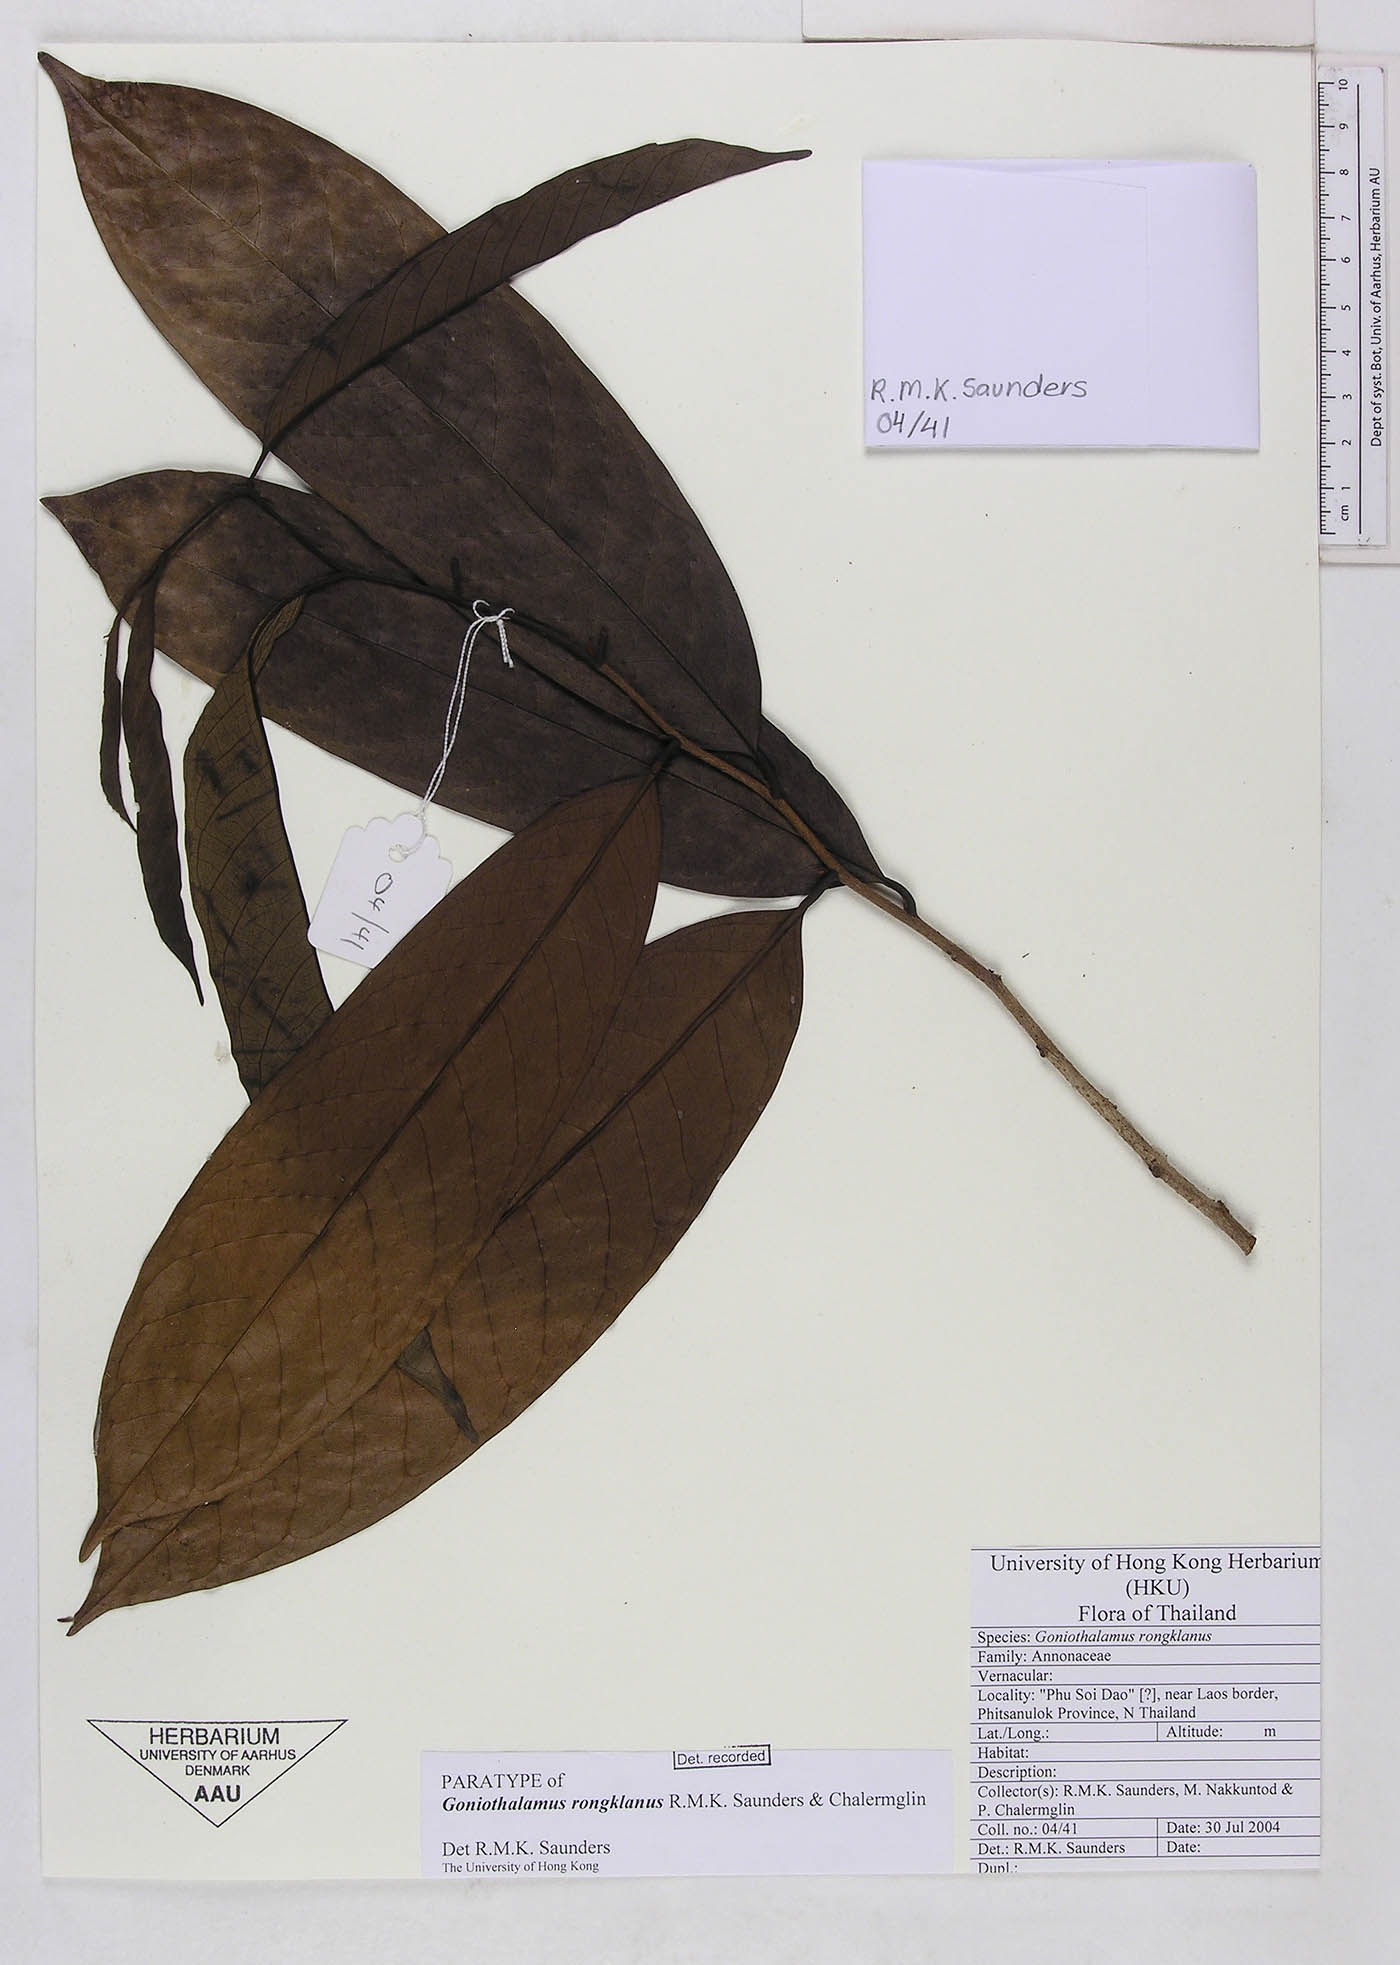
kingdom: Plantae
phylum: Tracheophyta
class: Magnoliopsida
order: Magnoliales
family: Annonaceae
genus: Goniothalamus
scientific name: Goniothalamus rongklanus
